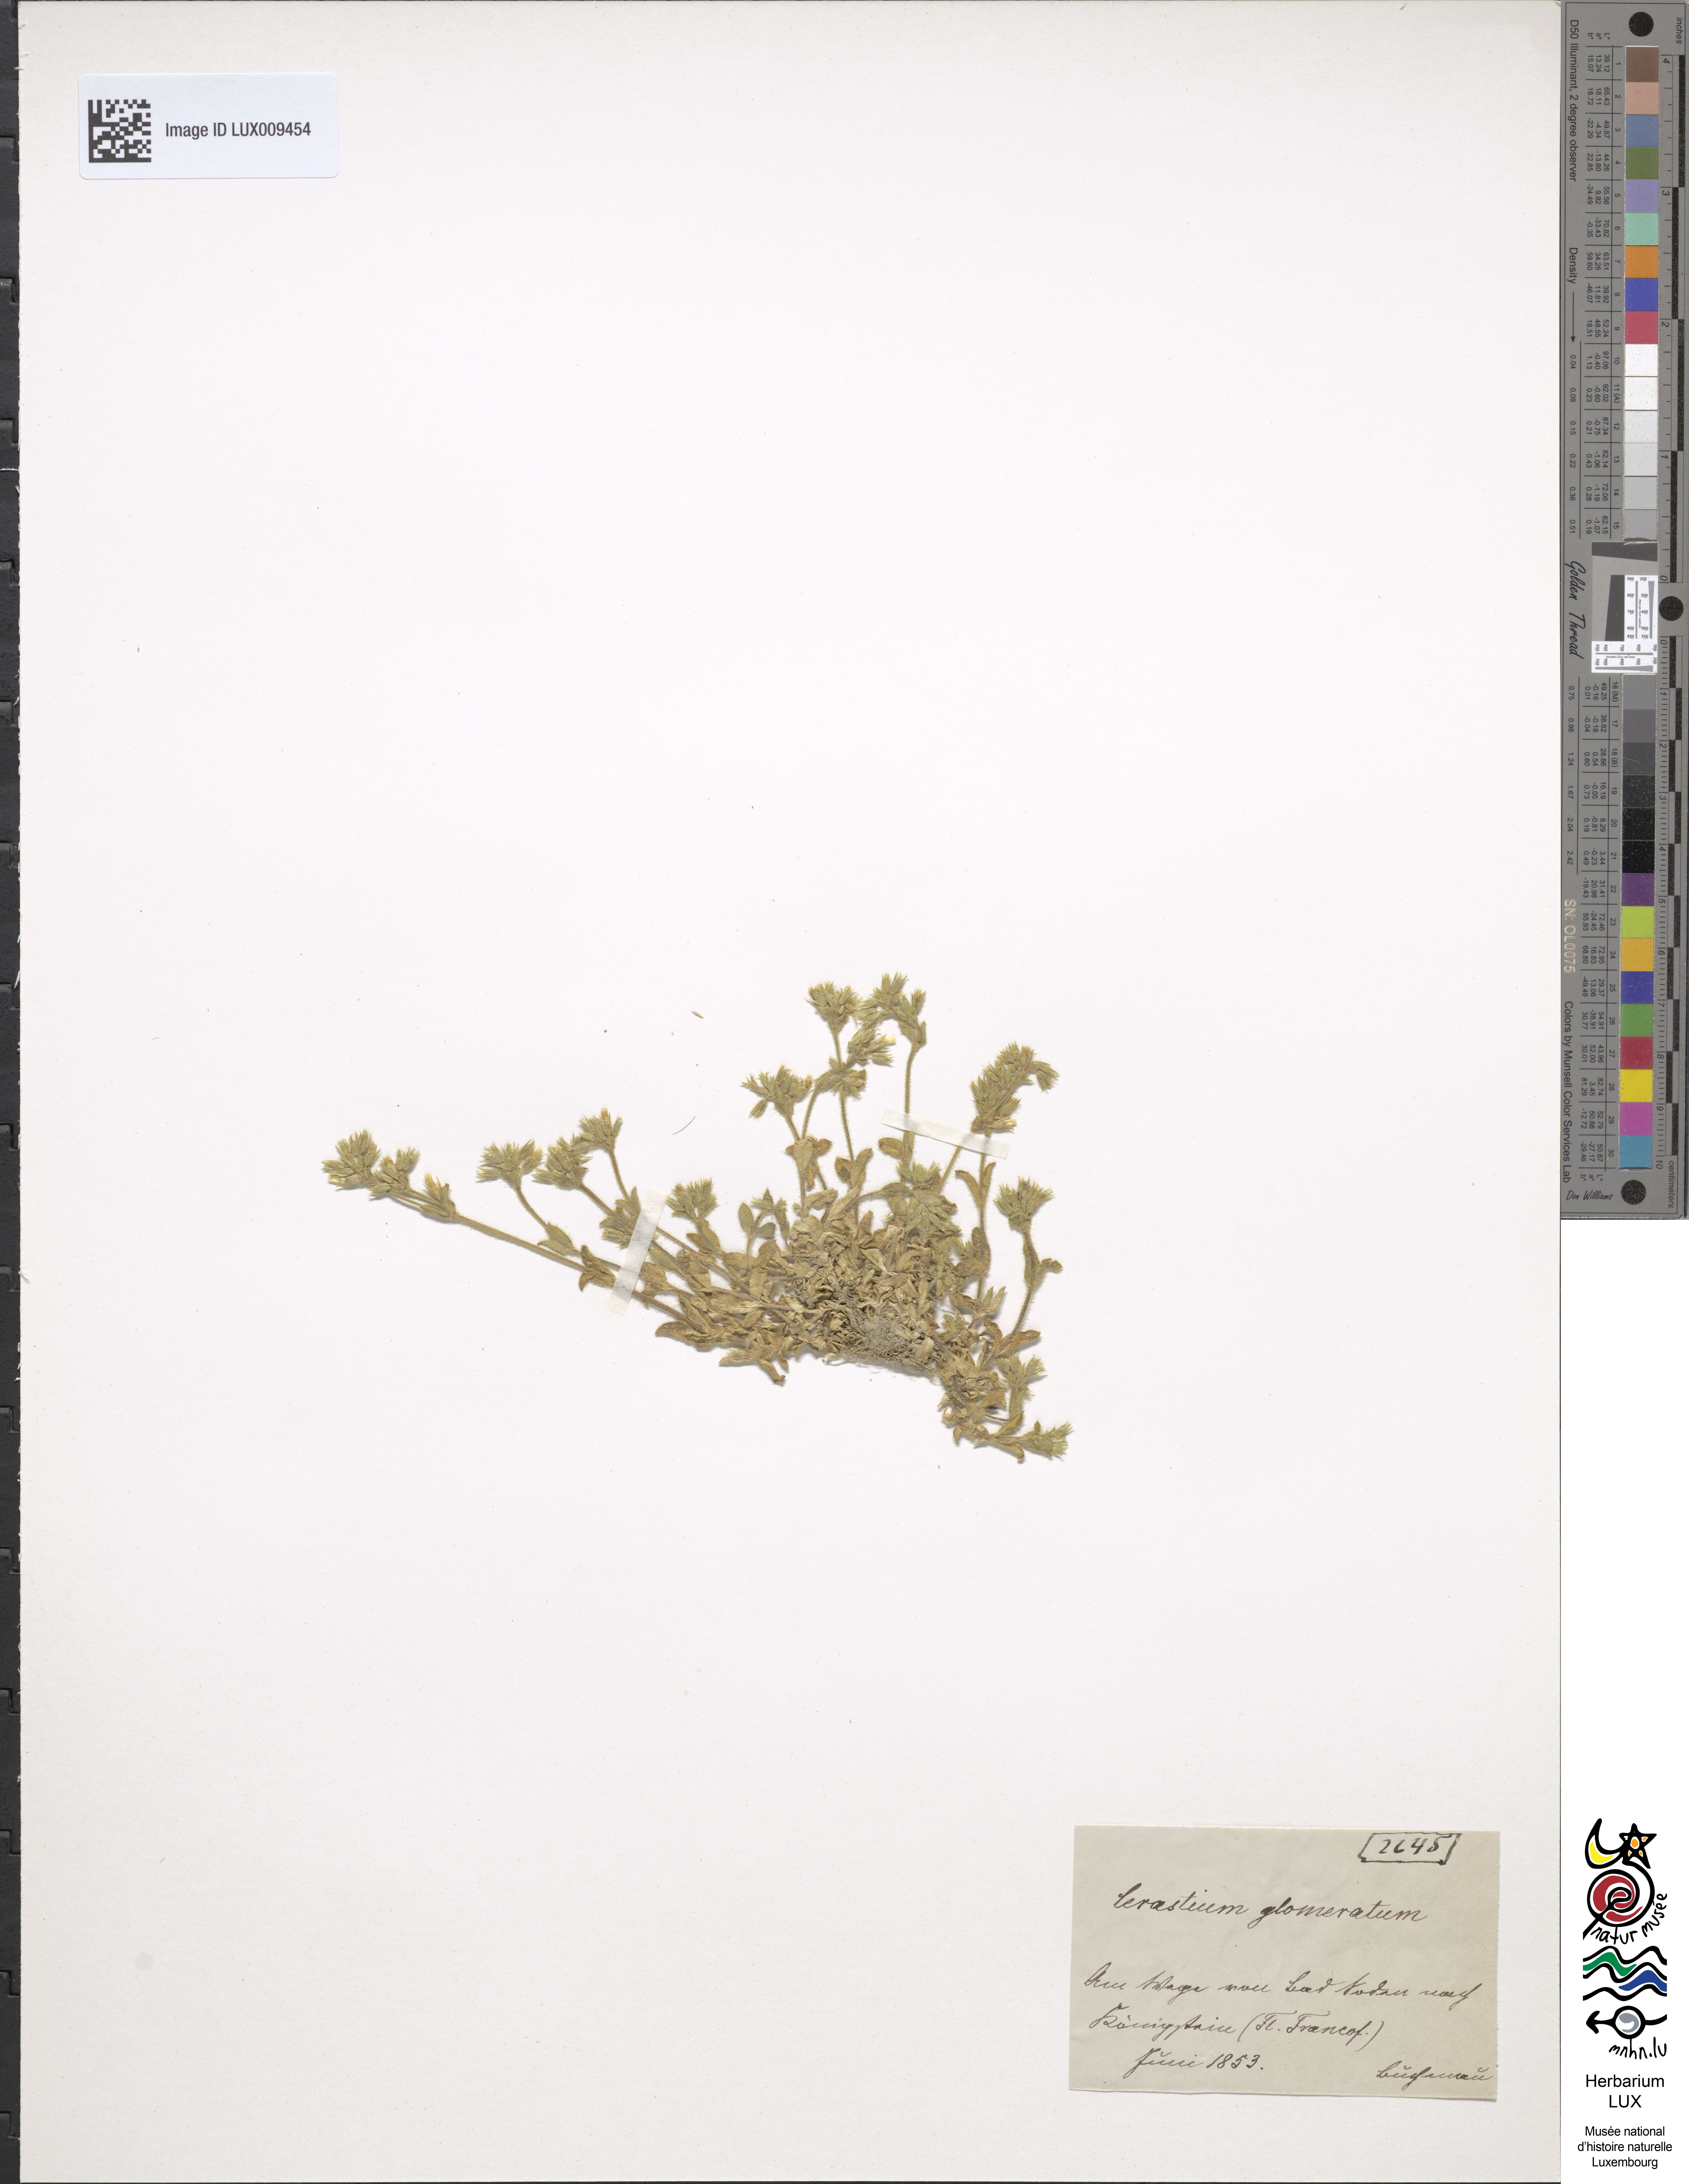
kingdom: Plantae
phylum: Tracheophyta
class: Magnoliopsida
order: Caryophyllales
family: Caryophyllaceae
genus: Cerastium
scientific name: Cerastium glomeratum
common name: Sticky chickweed
